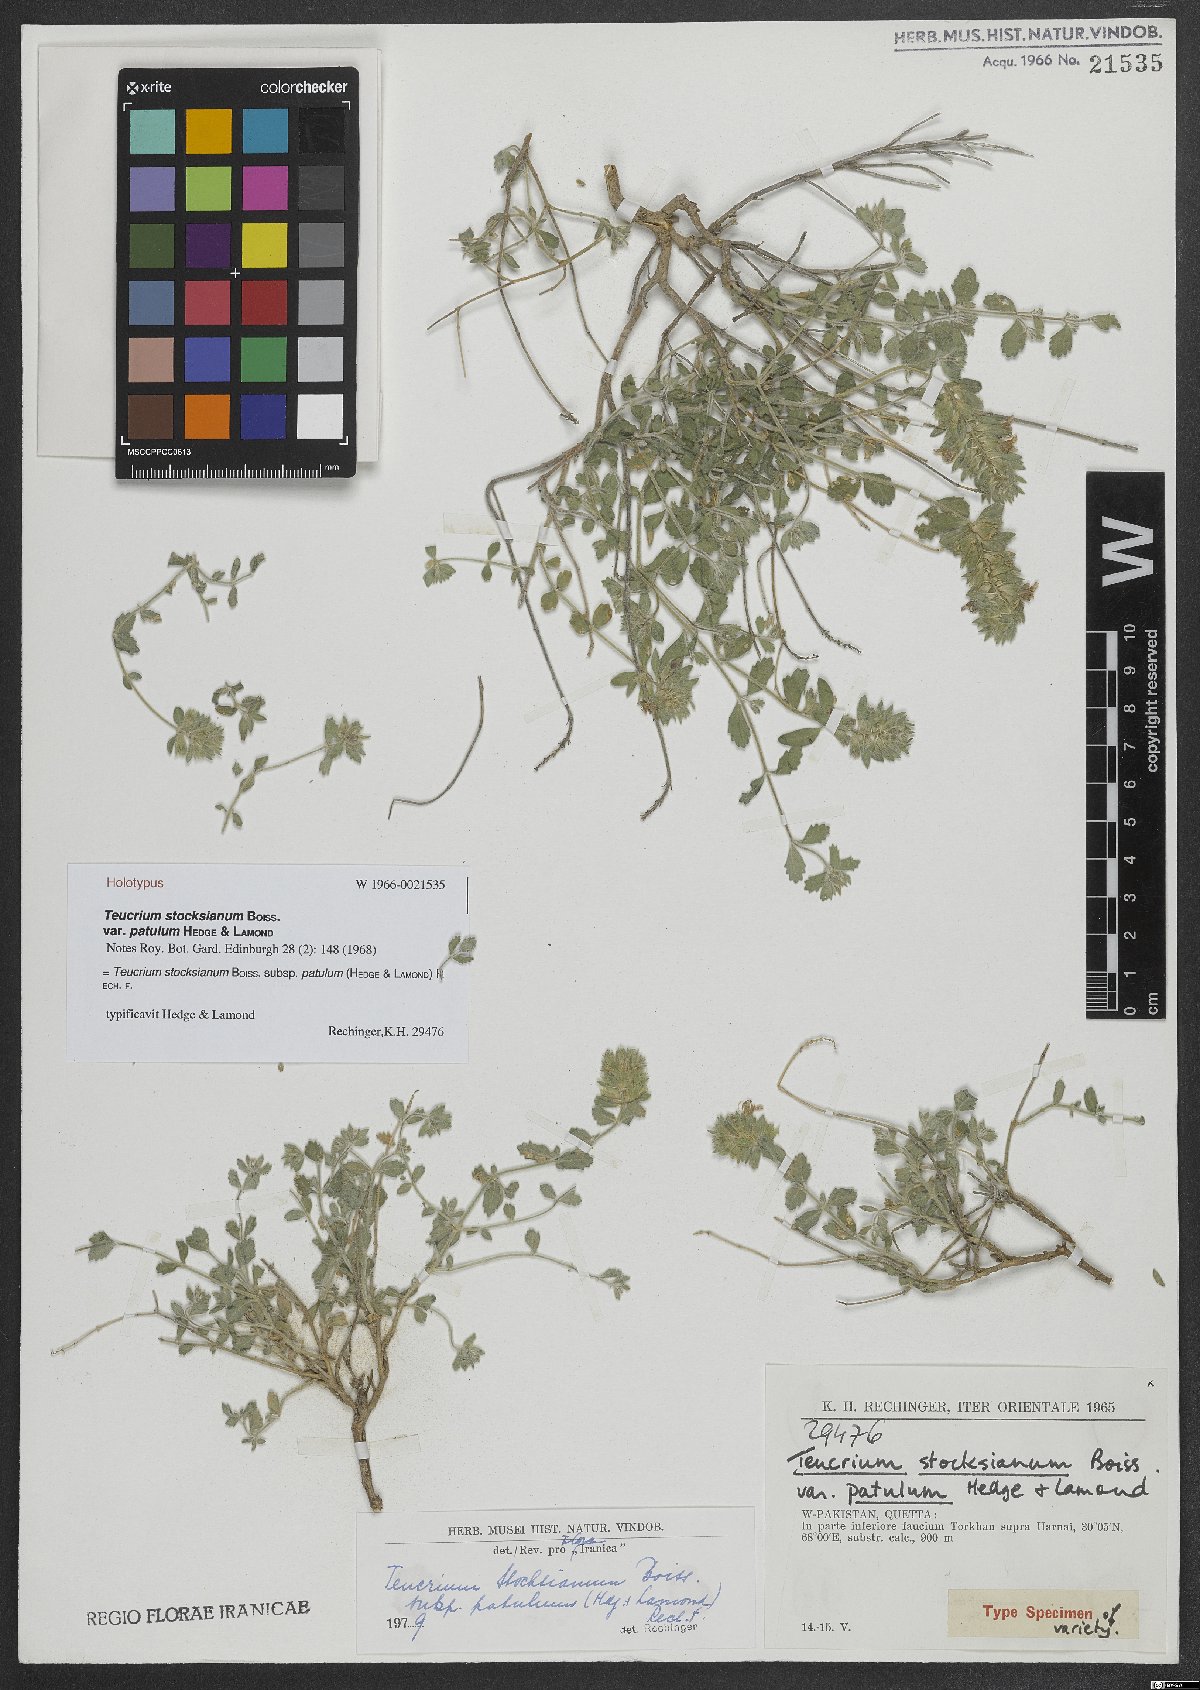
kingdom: Plantae
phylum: Tracheophyta
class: Magnoliopsida
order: Lamiales
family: Lamiaceae
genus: Teucrium
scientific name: Teucrium stocksianum
